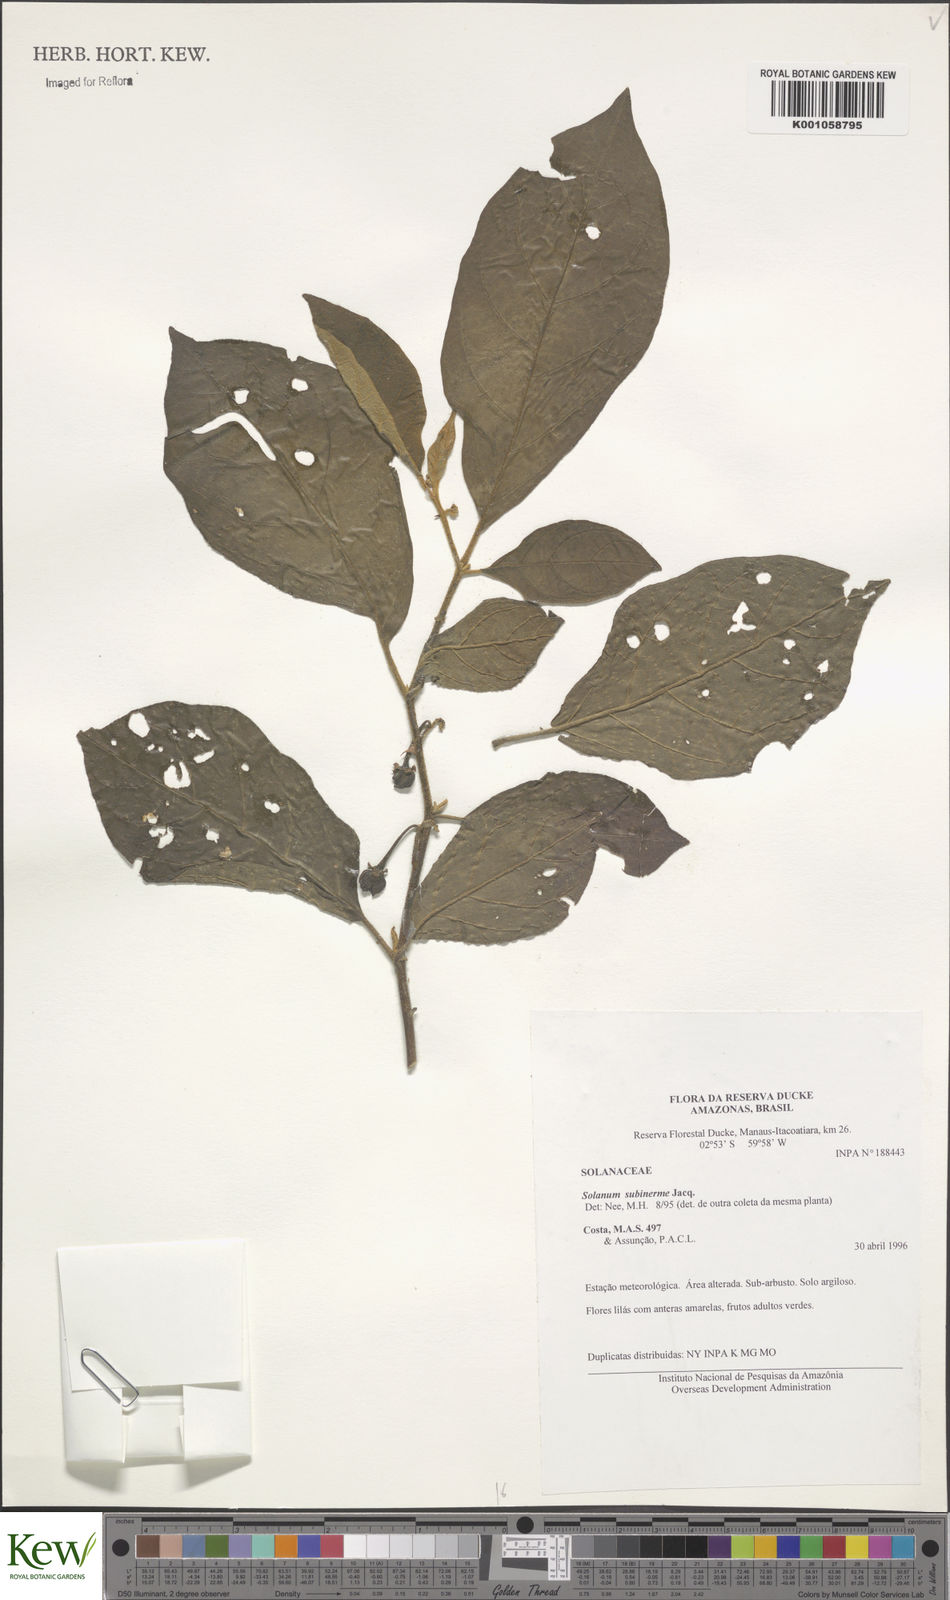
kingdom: Plantae
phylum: Tracheophyta
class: Magnoliopsida
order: Solanales
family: Solanaceae
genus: Solanum
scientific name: Solanum subinerme
